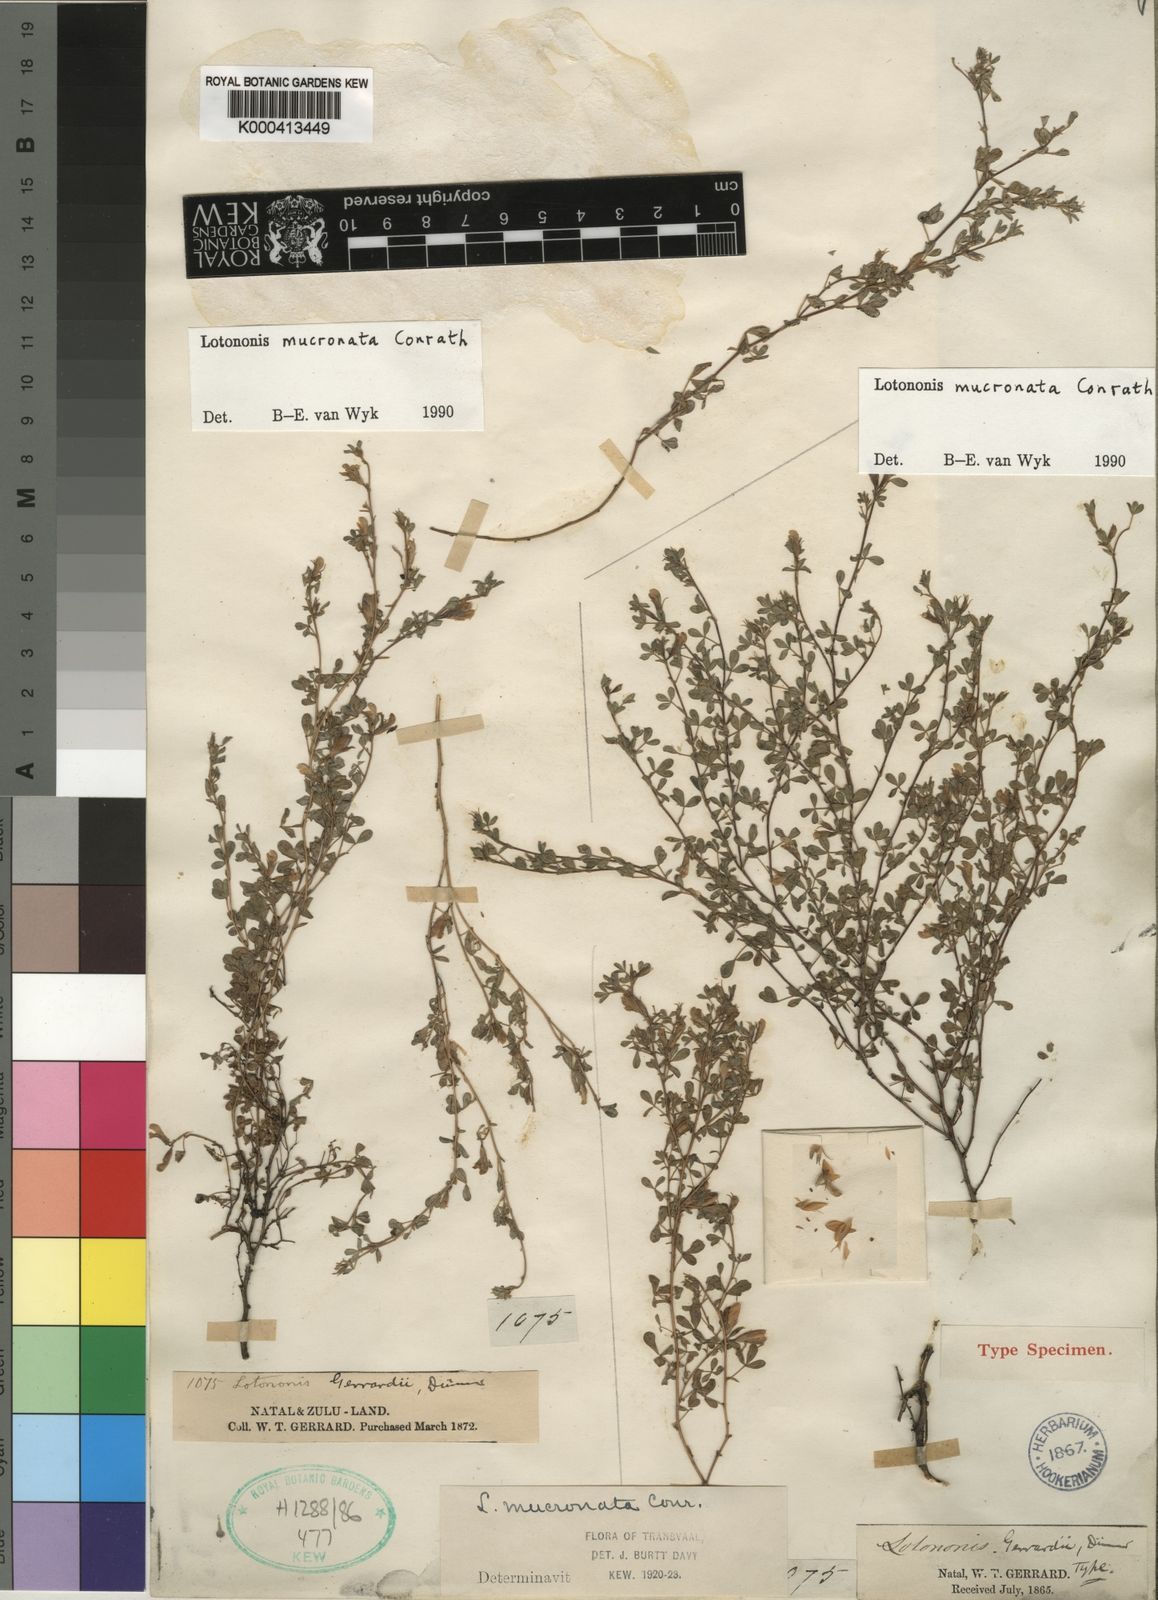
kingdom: Plantae
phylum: Tracheophyta
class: Magnoliopsida
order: Fabales
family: Fabaceae
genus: Leobordea
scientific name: Leobordea mucronata
